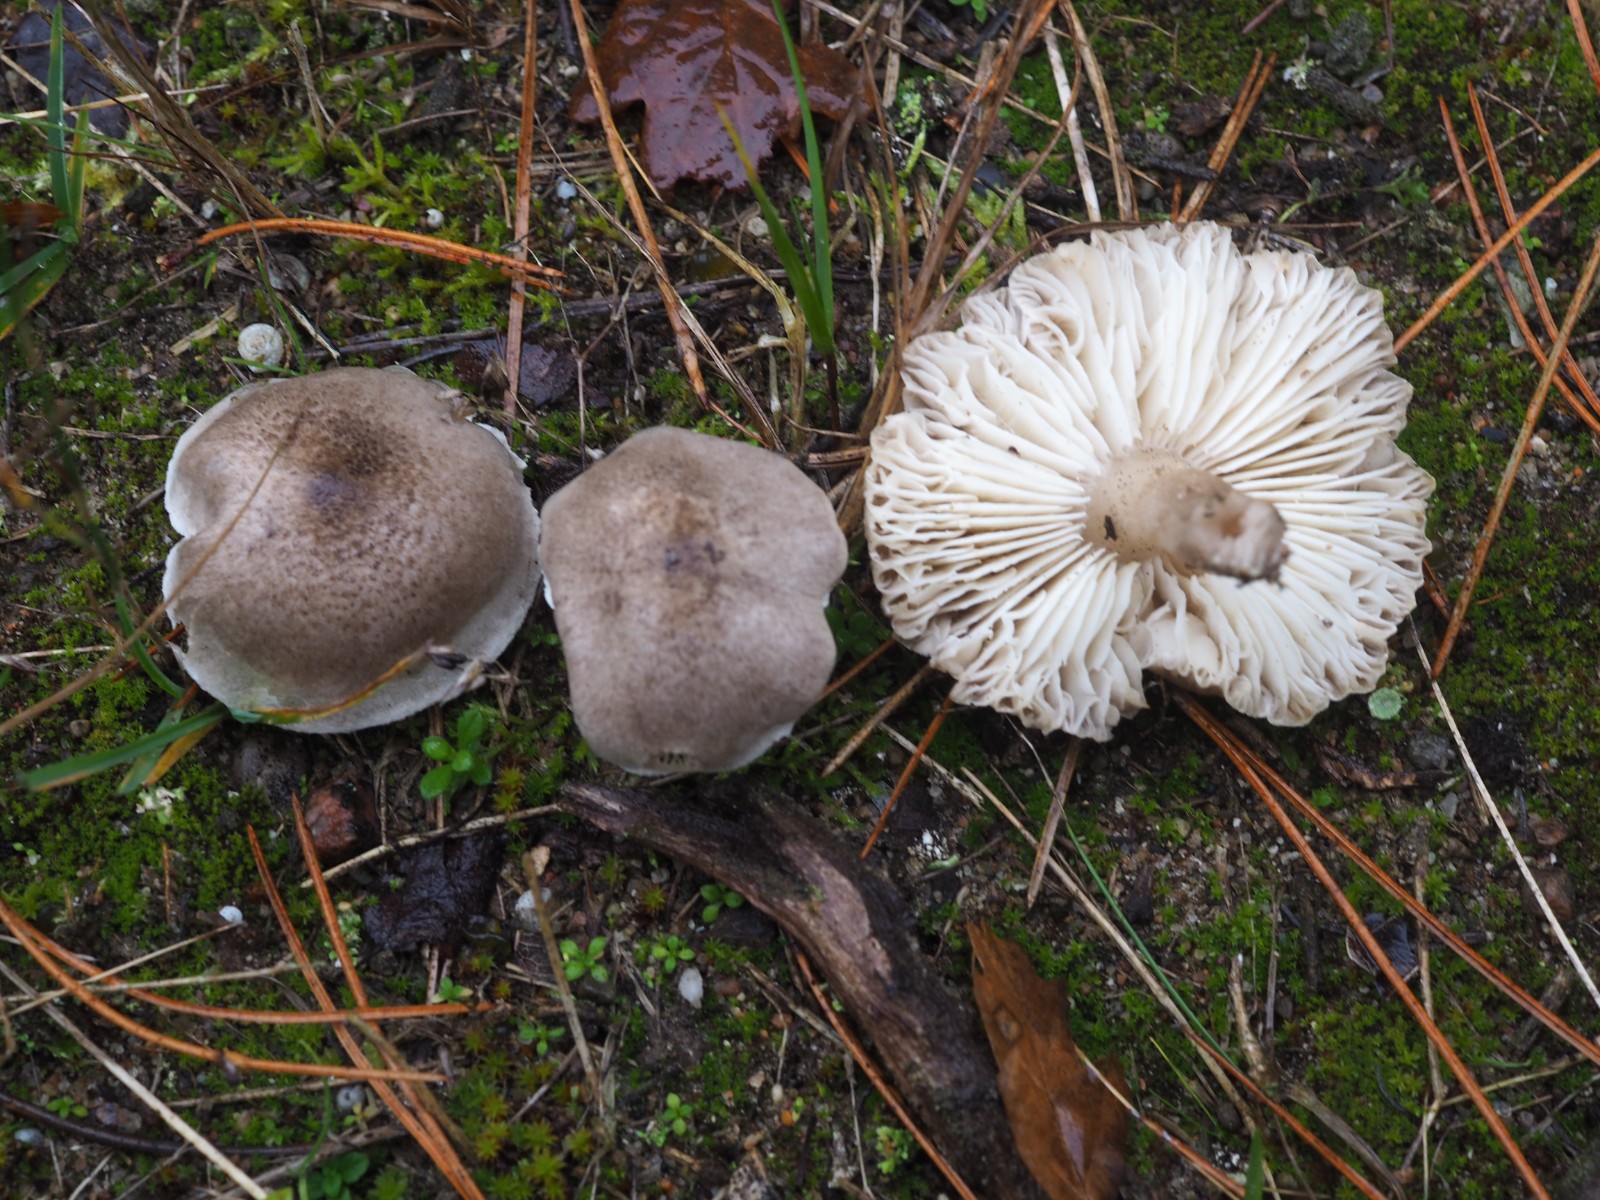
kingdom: Fungi
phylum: Basidiomycota
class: Agaricomycetes
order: Agaricales
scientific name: Agaricales
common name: champignonordenen
